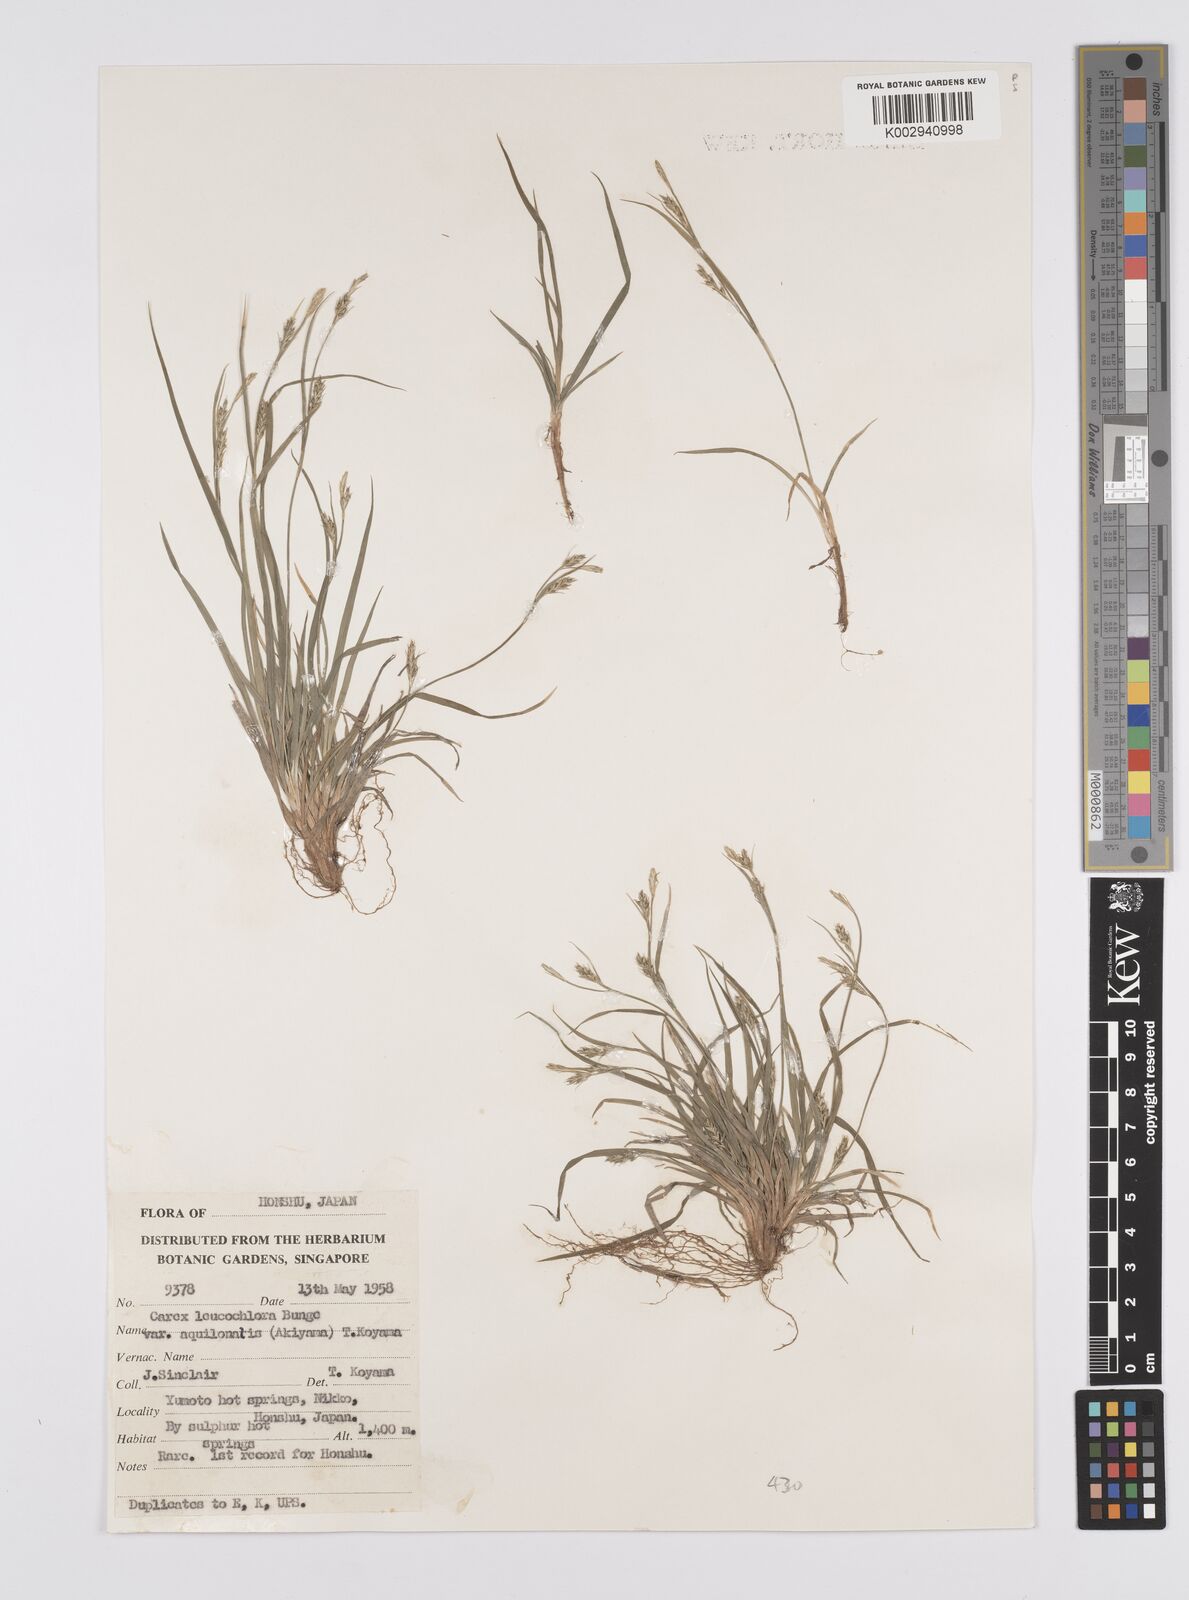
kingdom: Plantae
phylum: Tracheophyta
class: Liliopsida
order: Poales
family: Cyperaceae
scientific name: Cyperaceae
